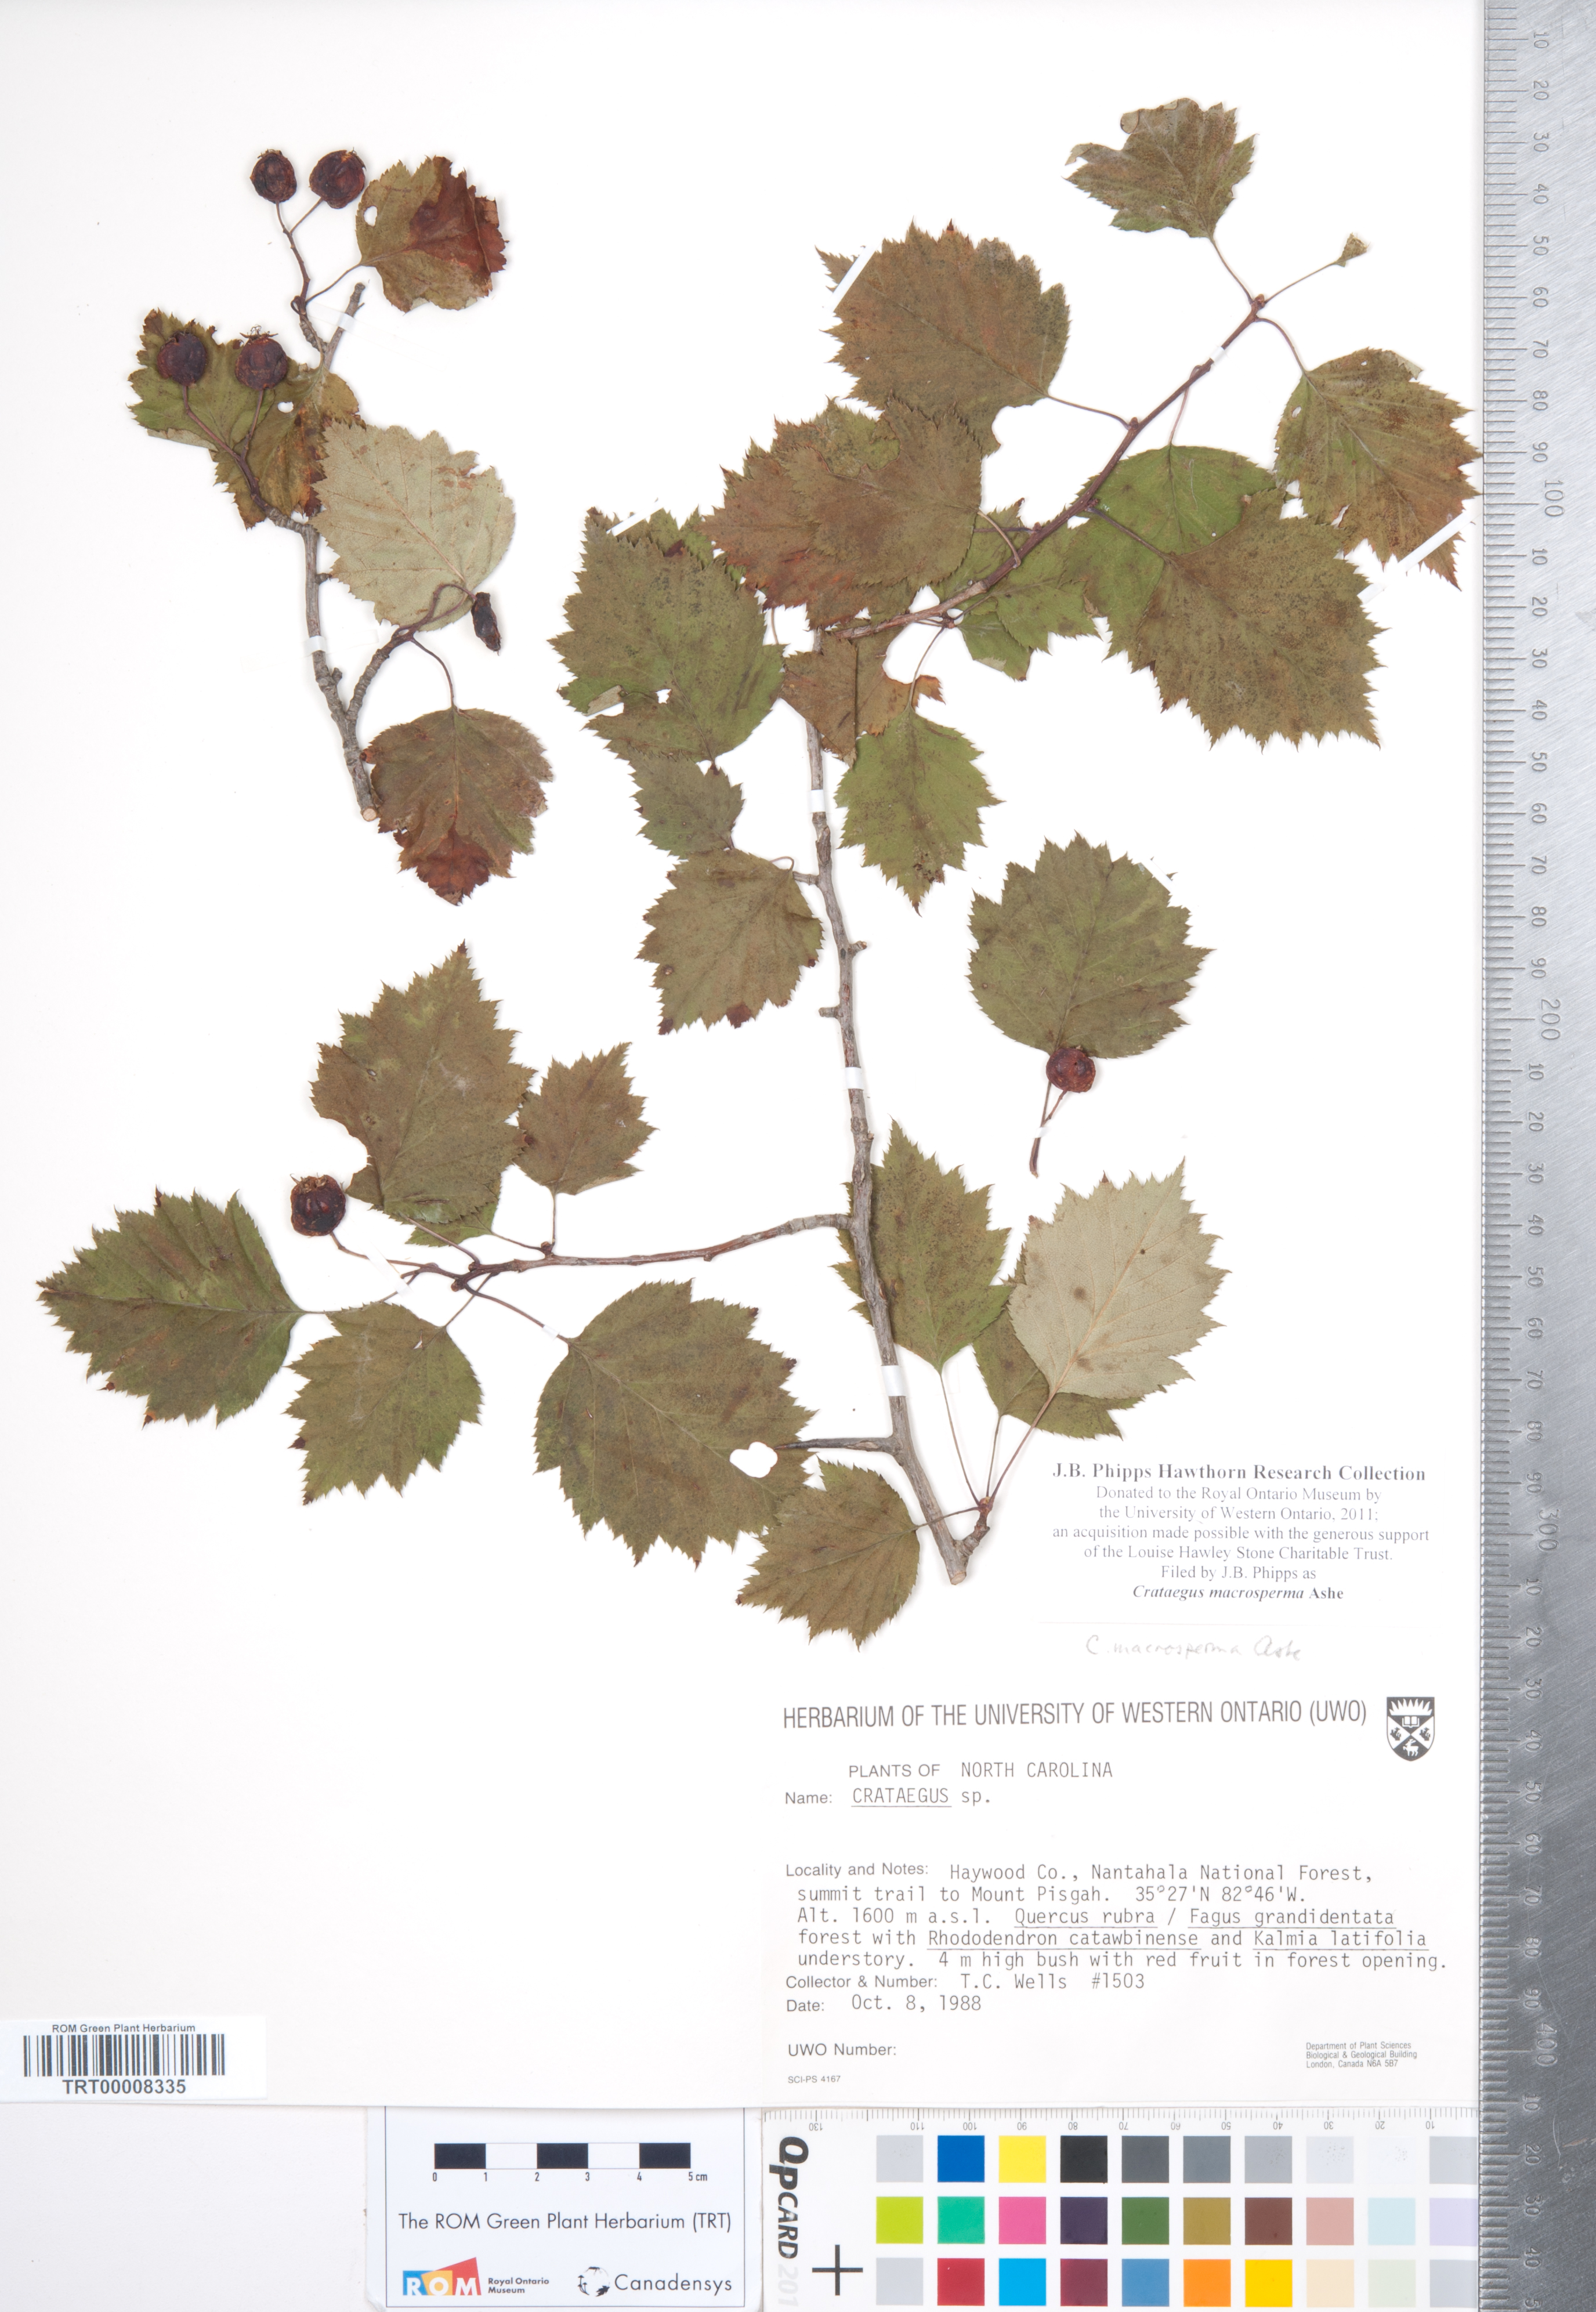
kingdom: Plantae
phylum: Tracheophyta
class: Magnoliopsida
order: Rosales
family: Rosaceae
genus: Crataegus
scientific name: Crataegus macrosperma
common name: Variable hawthorn
